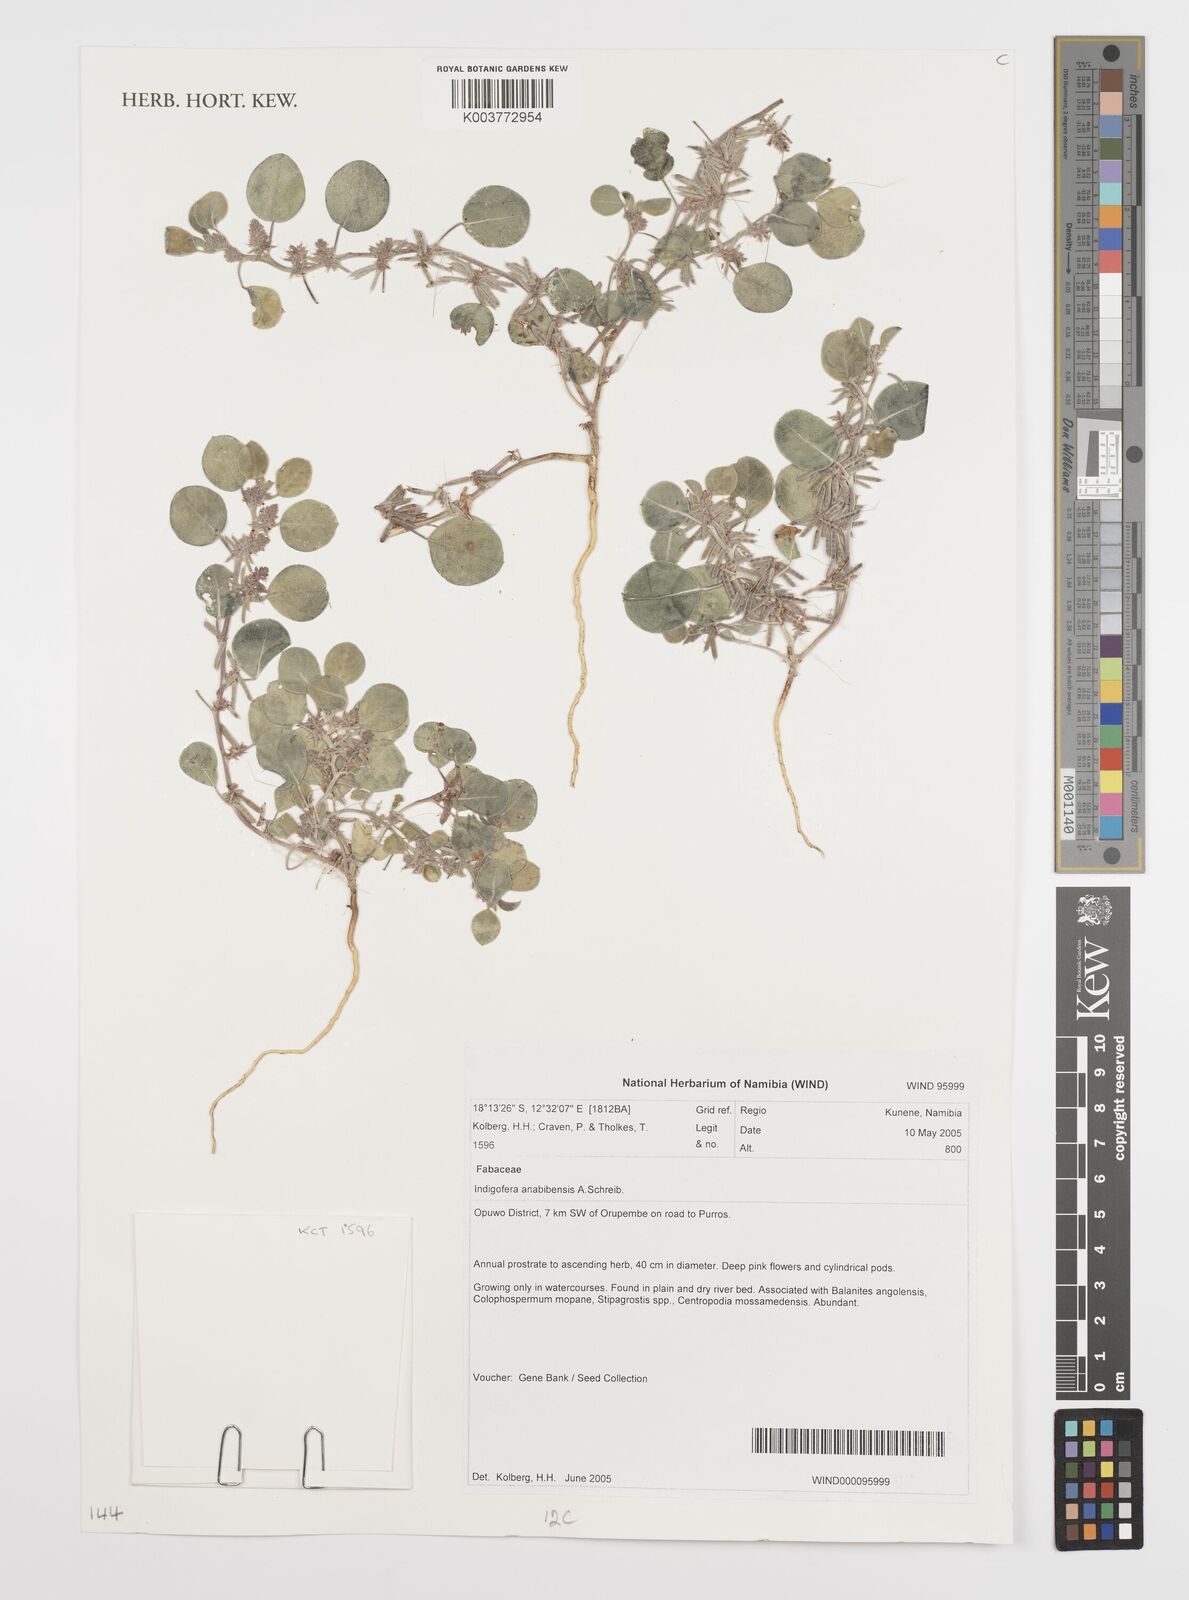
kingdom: Plantae
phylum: Tracheophyta
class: Magnoliopsida
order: Fabales
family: Fabaceae
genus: Indigofera
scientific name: Indigofera anabibensis
